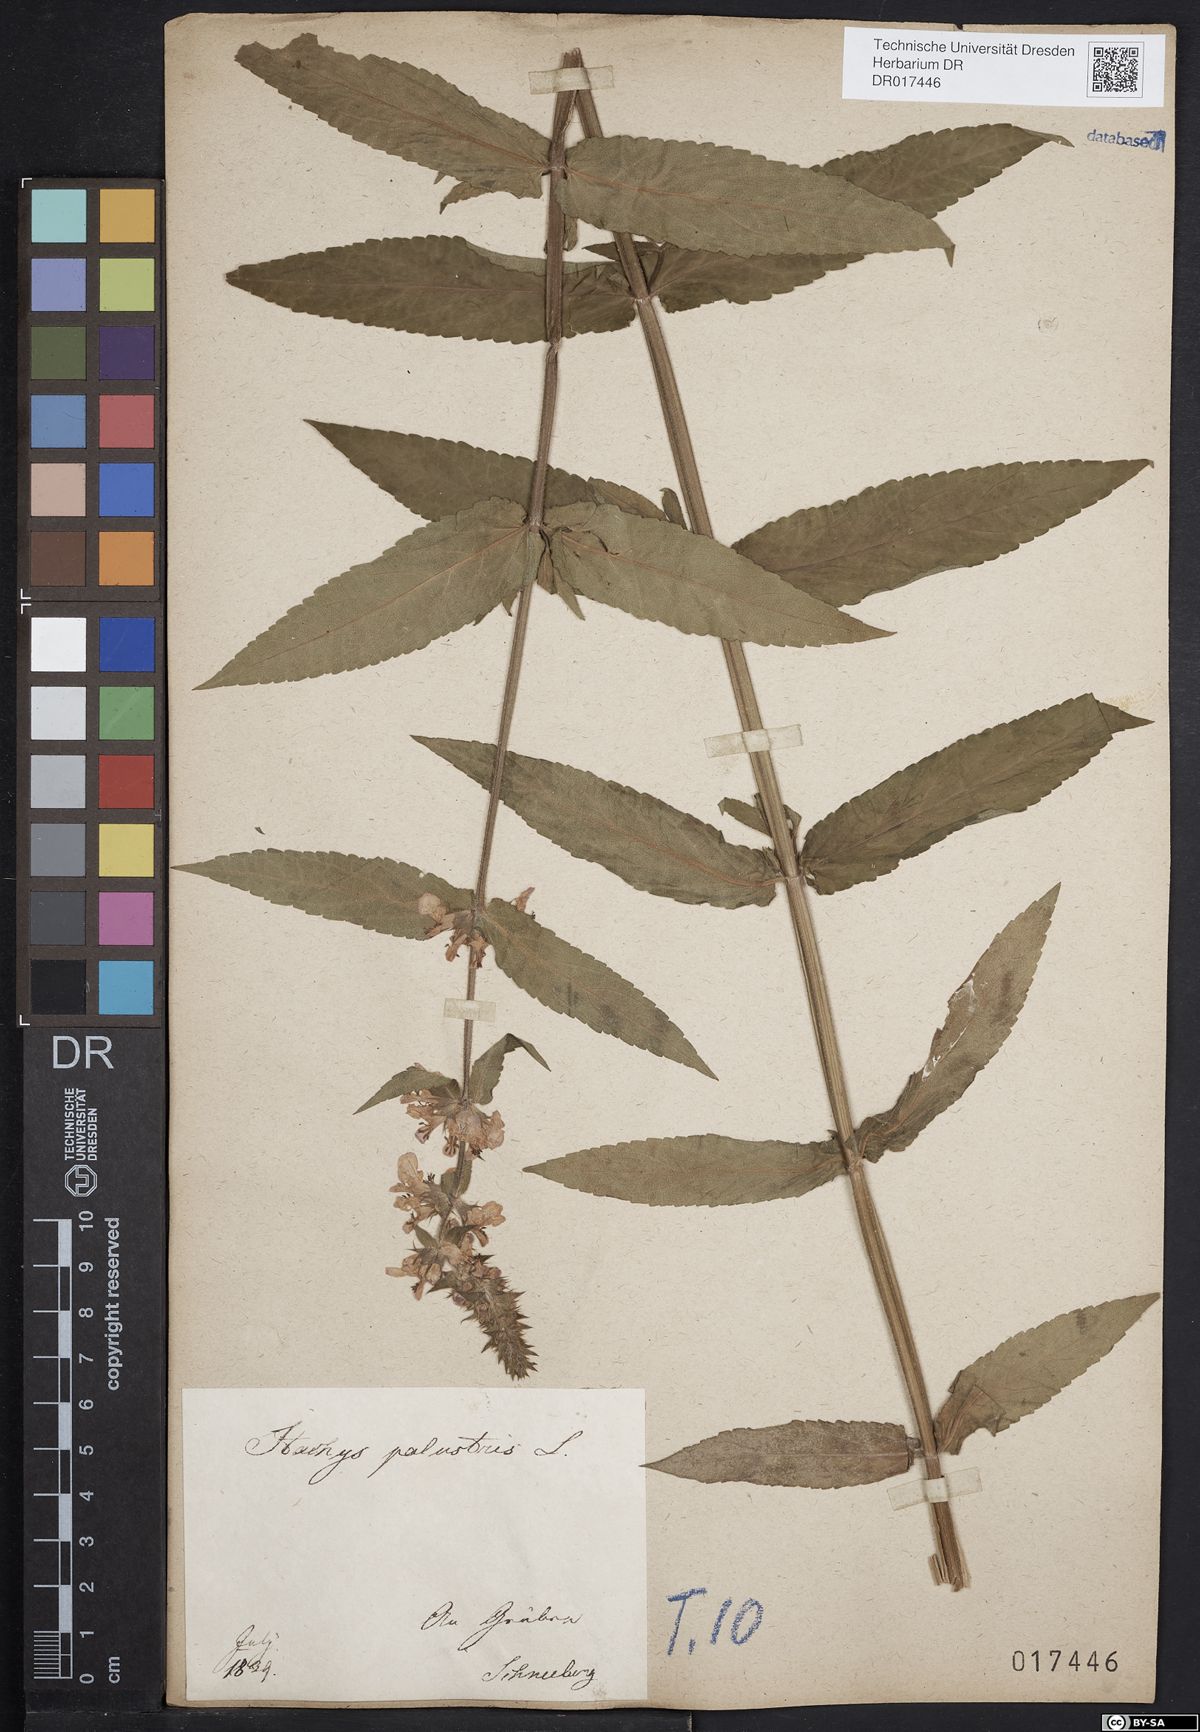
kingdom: Plantae
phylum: Tracheophyta
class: Magnoliopsida
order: Lamiales
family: Lamiaceae
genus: Stachys
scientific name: Stachys palustris
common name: Marsh woundwort
